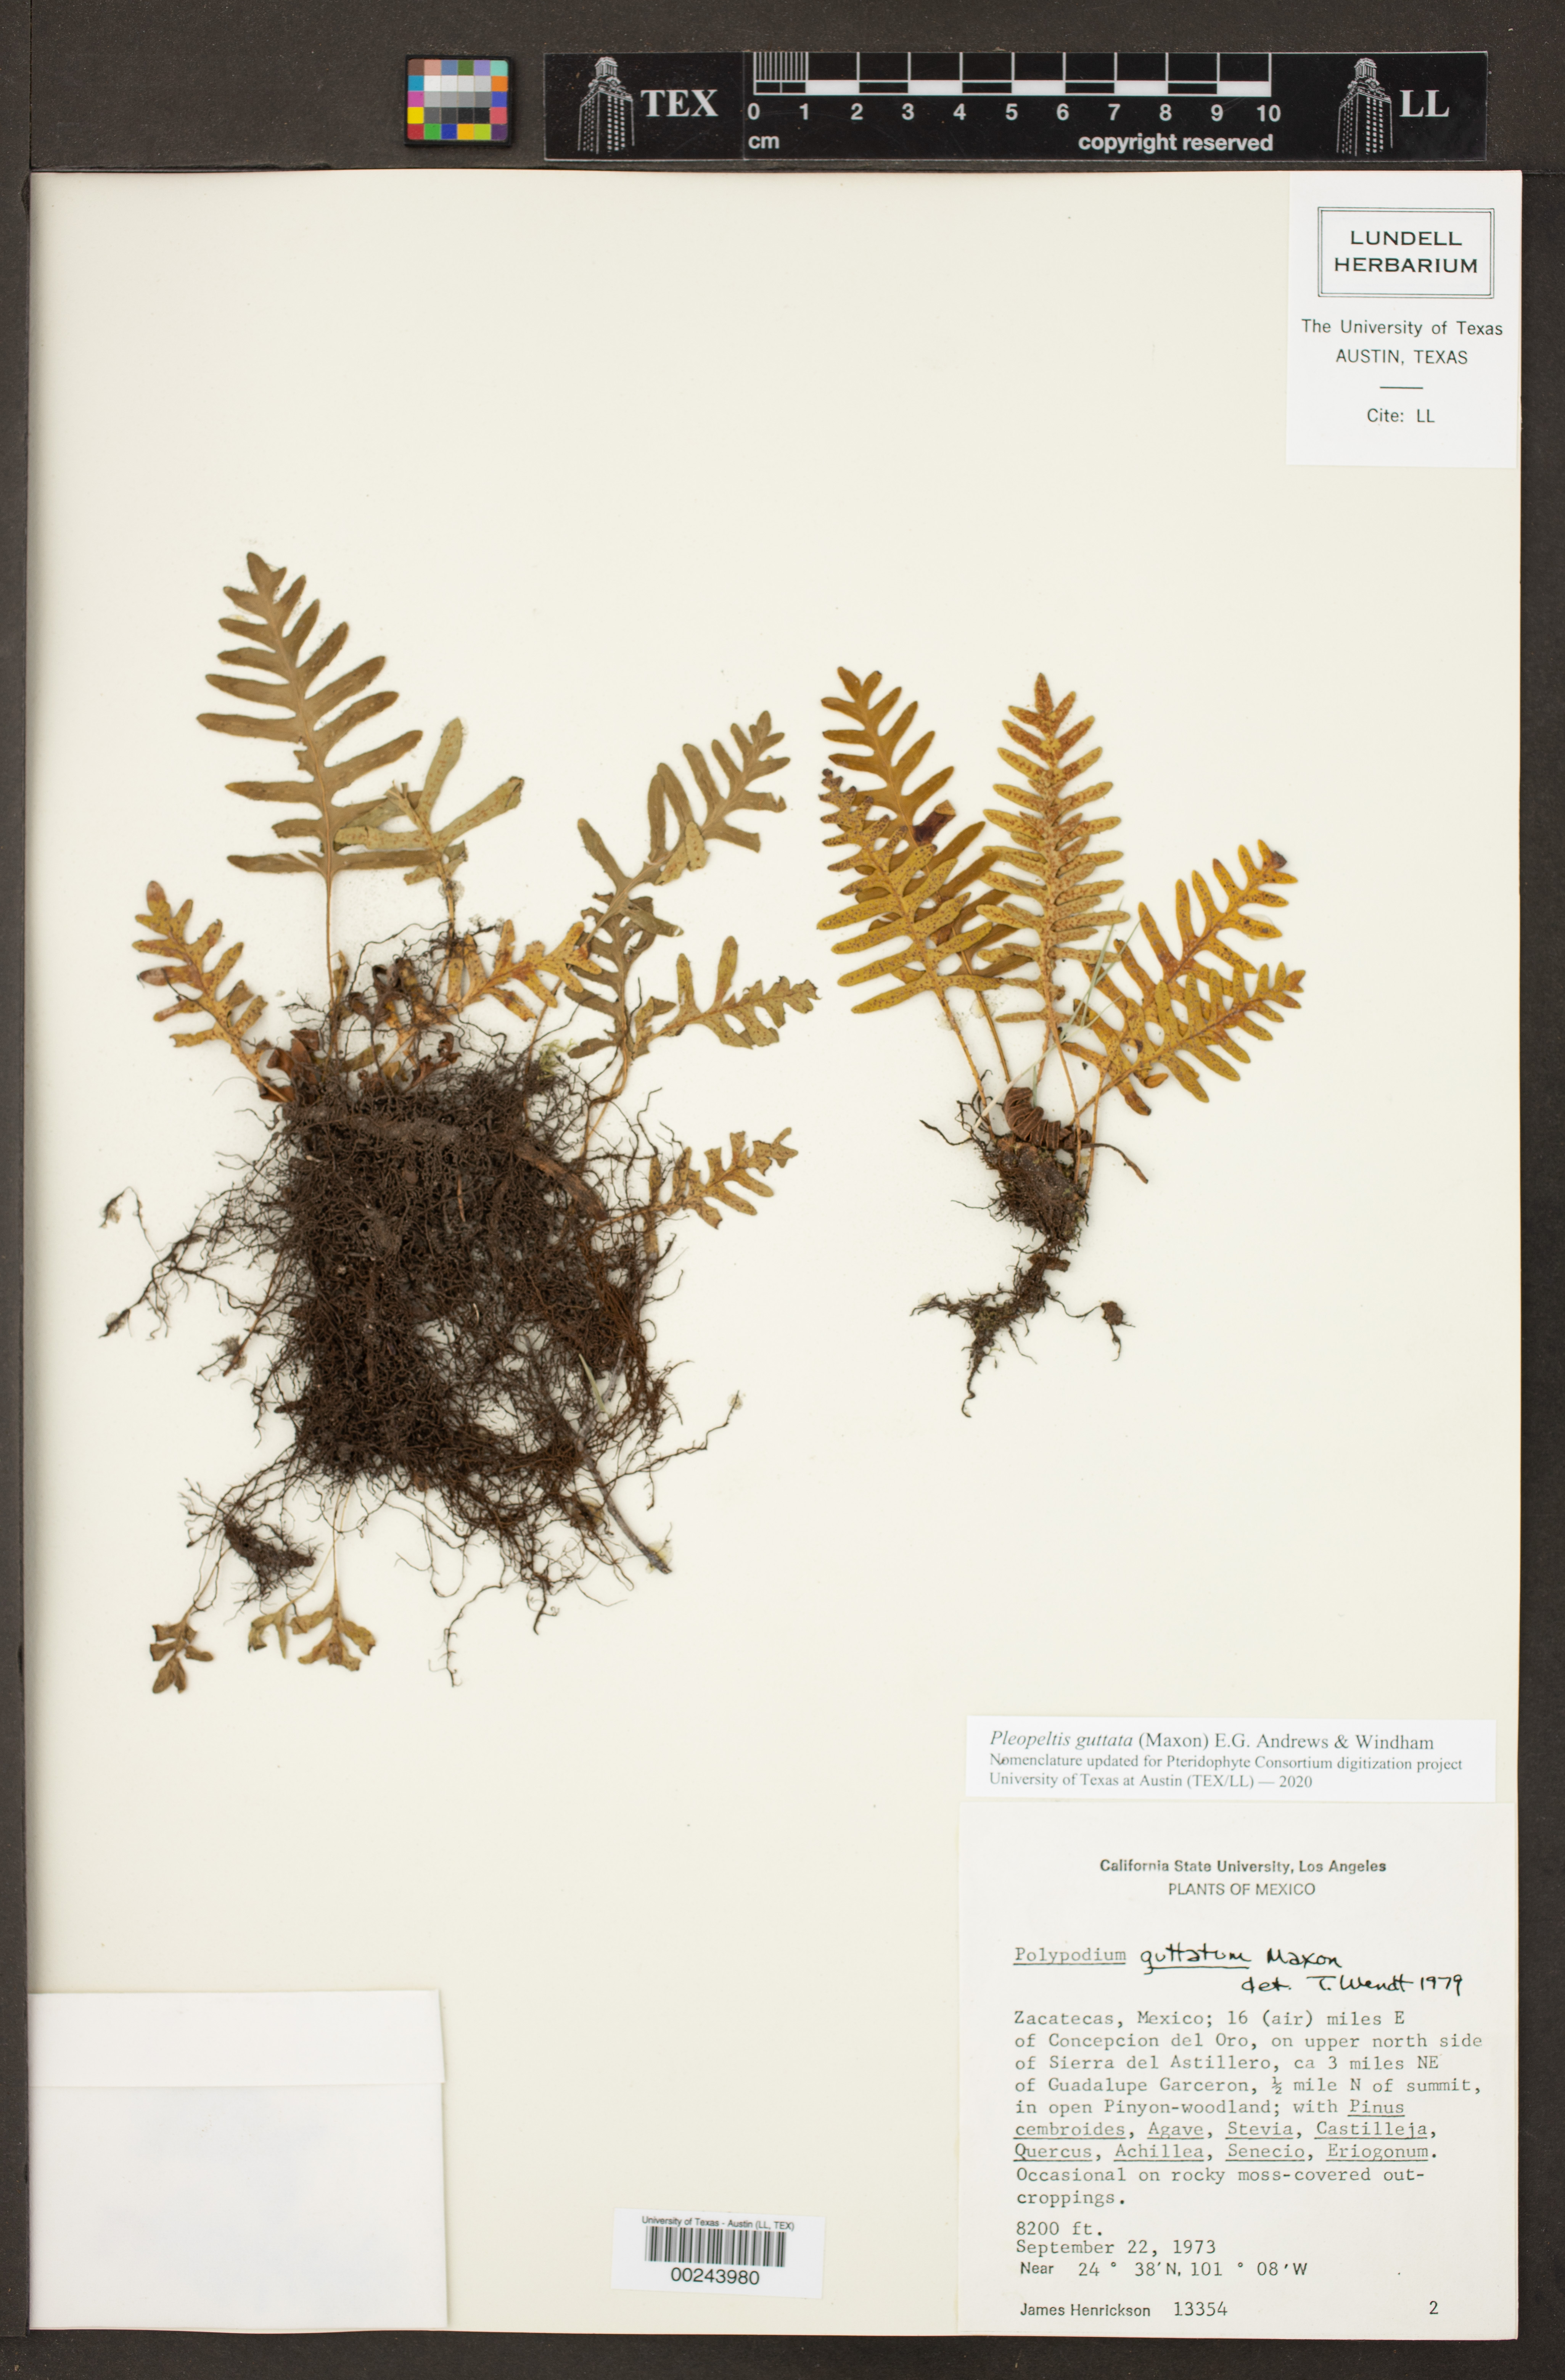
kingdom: Plantae
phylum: Tracheophyta
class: Polypodiopsida
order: Polypodiales
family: Polypodiaceae
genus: Pleopeltis
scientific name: Pleopeltis guttata
